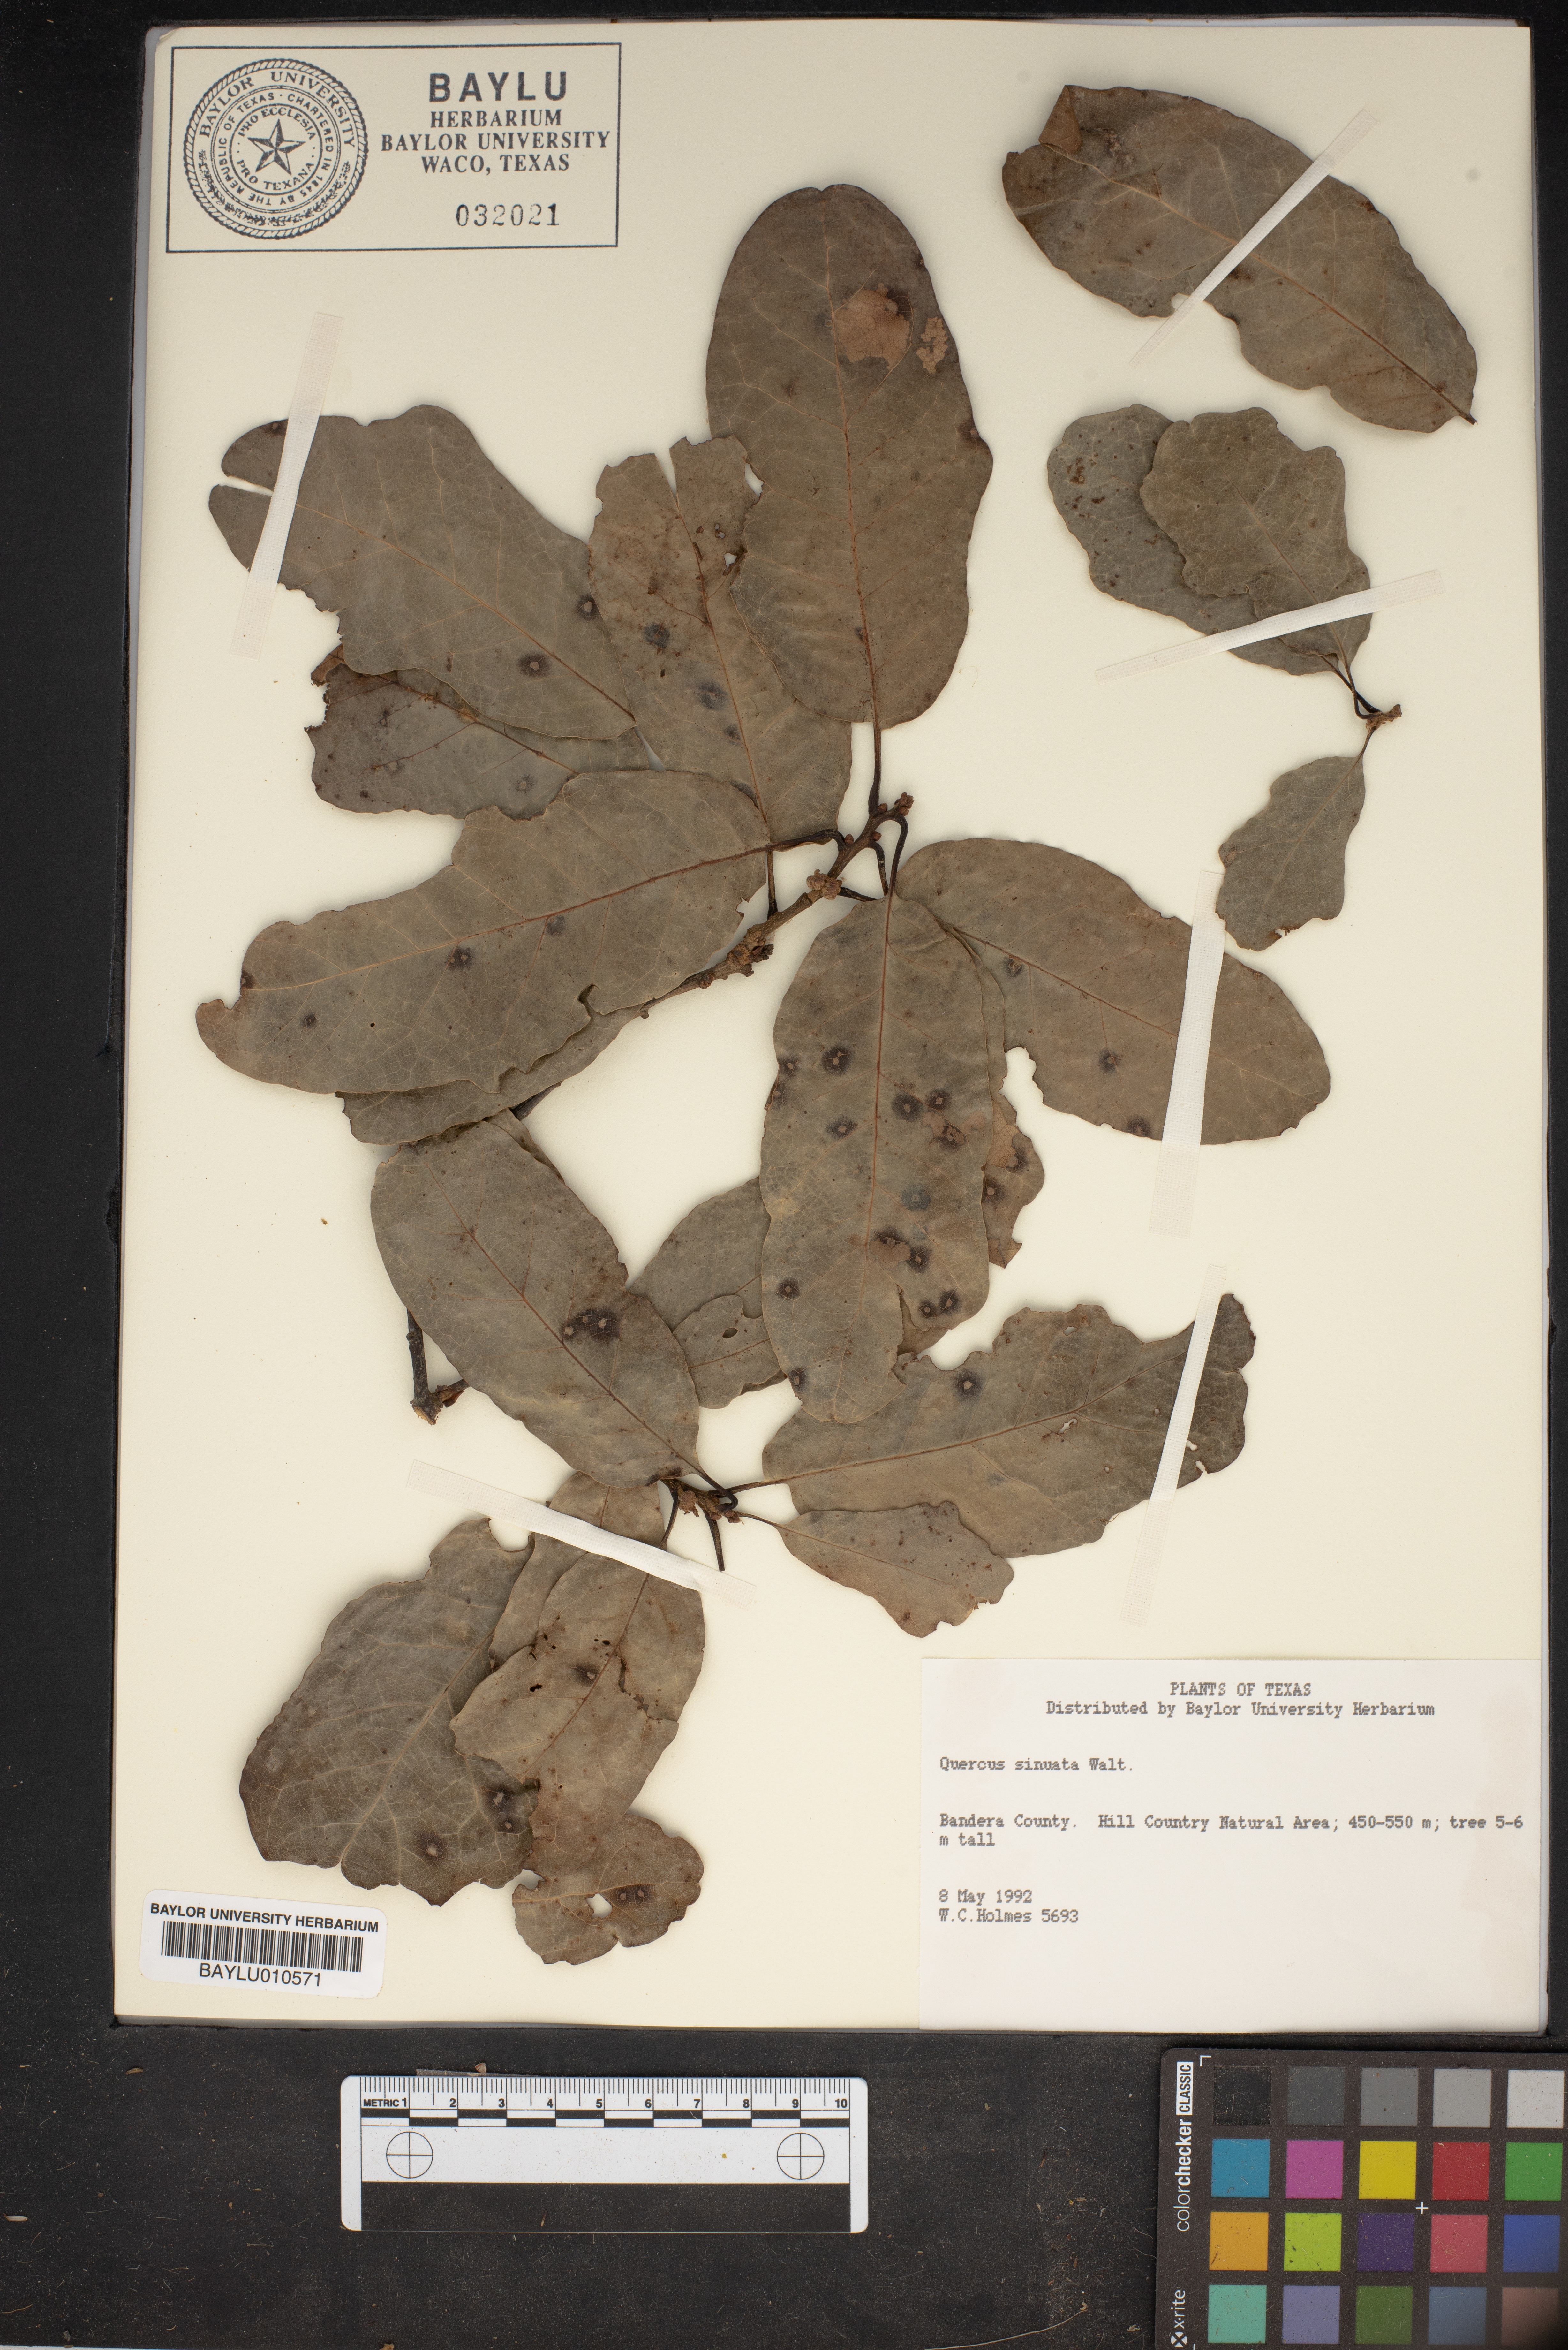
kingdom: Plantae
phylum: Tracheophyta
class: Magnoliopsida
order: Fagales
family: Fagaceae
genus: Quercus
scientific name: Quercus sinuata
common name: Durand oak
